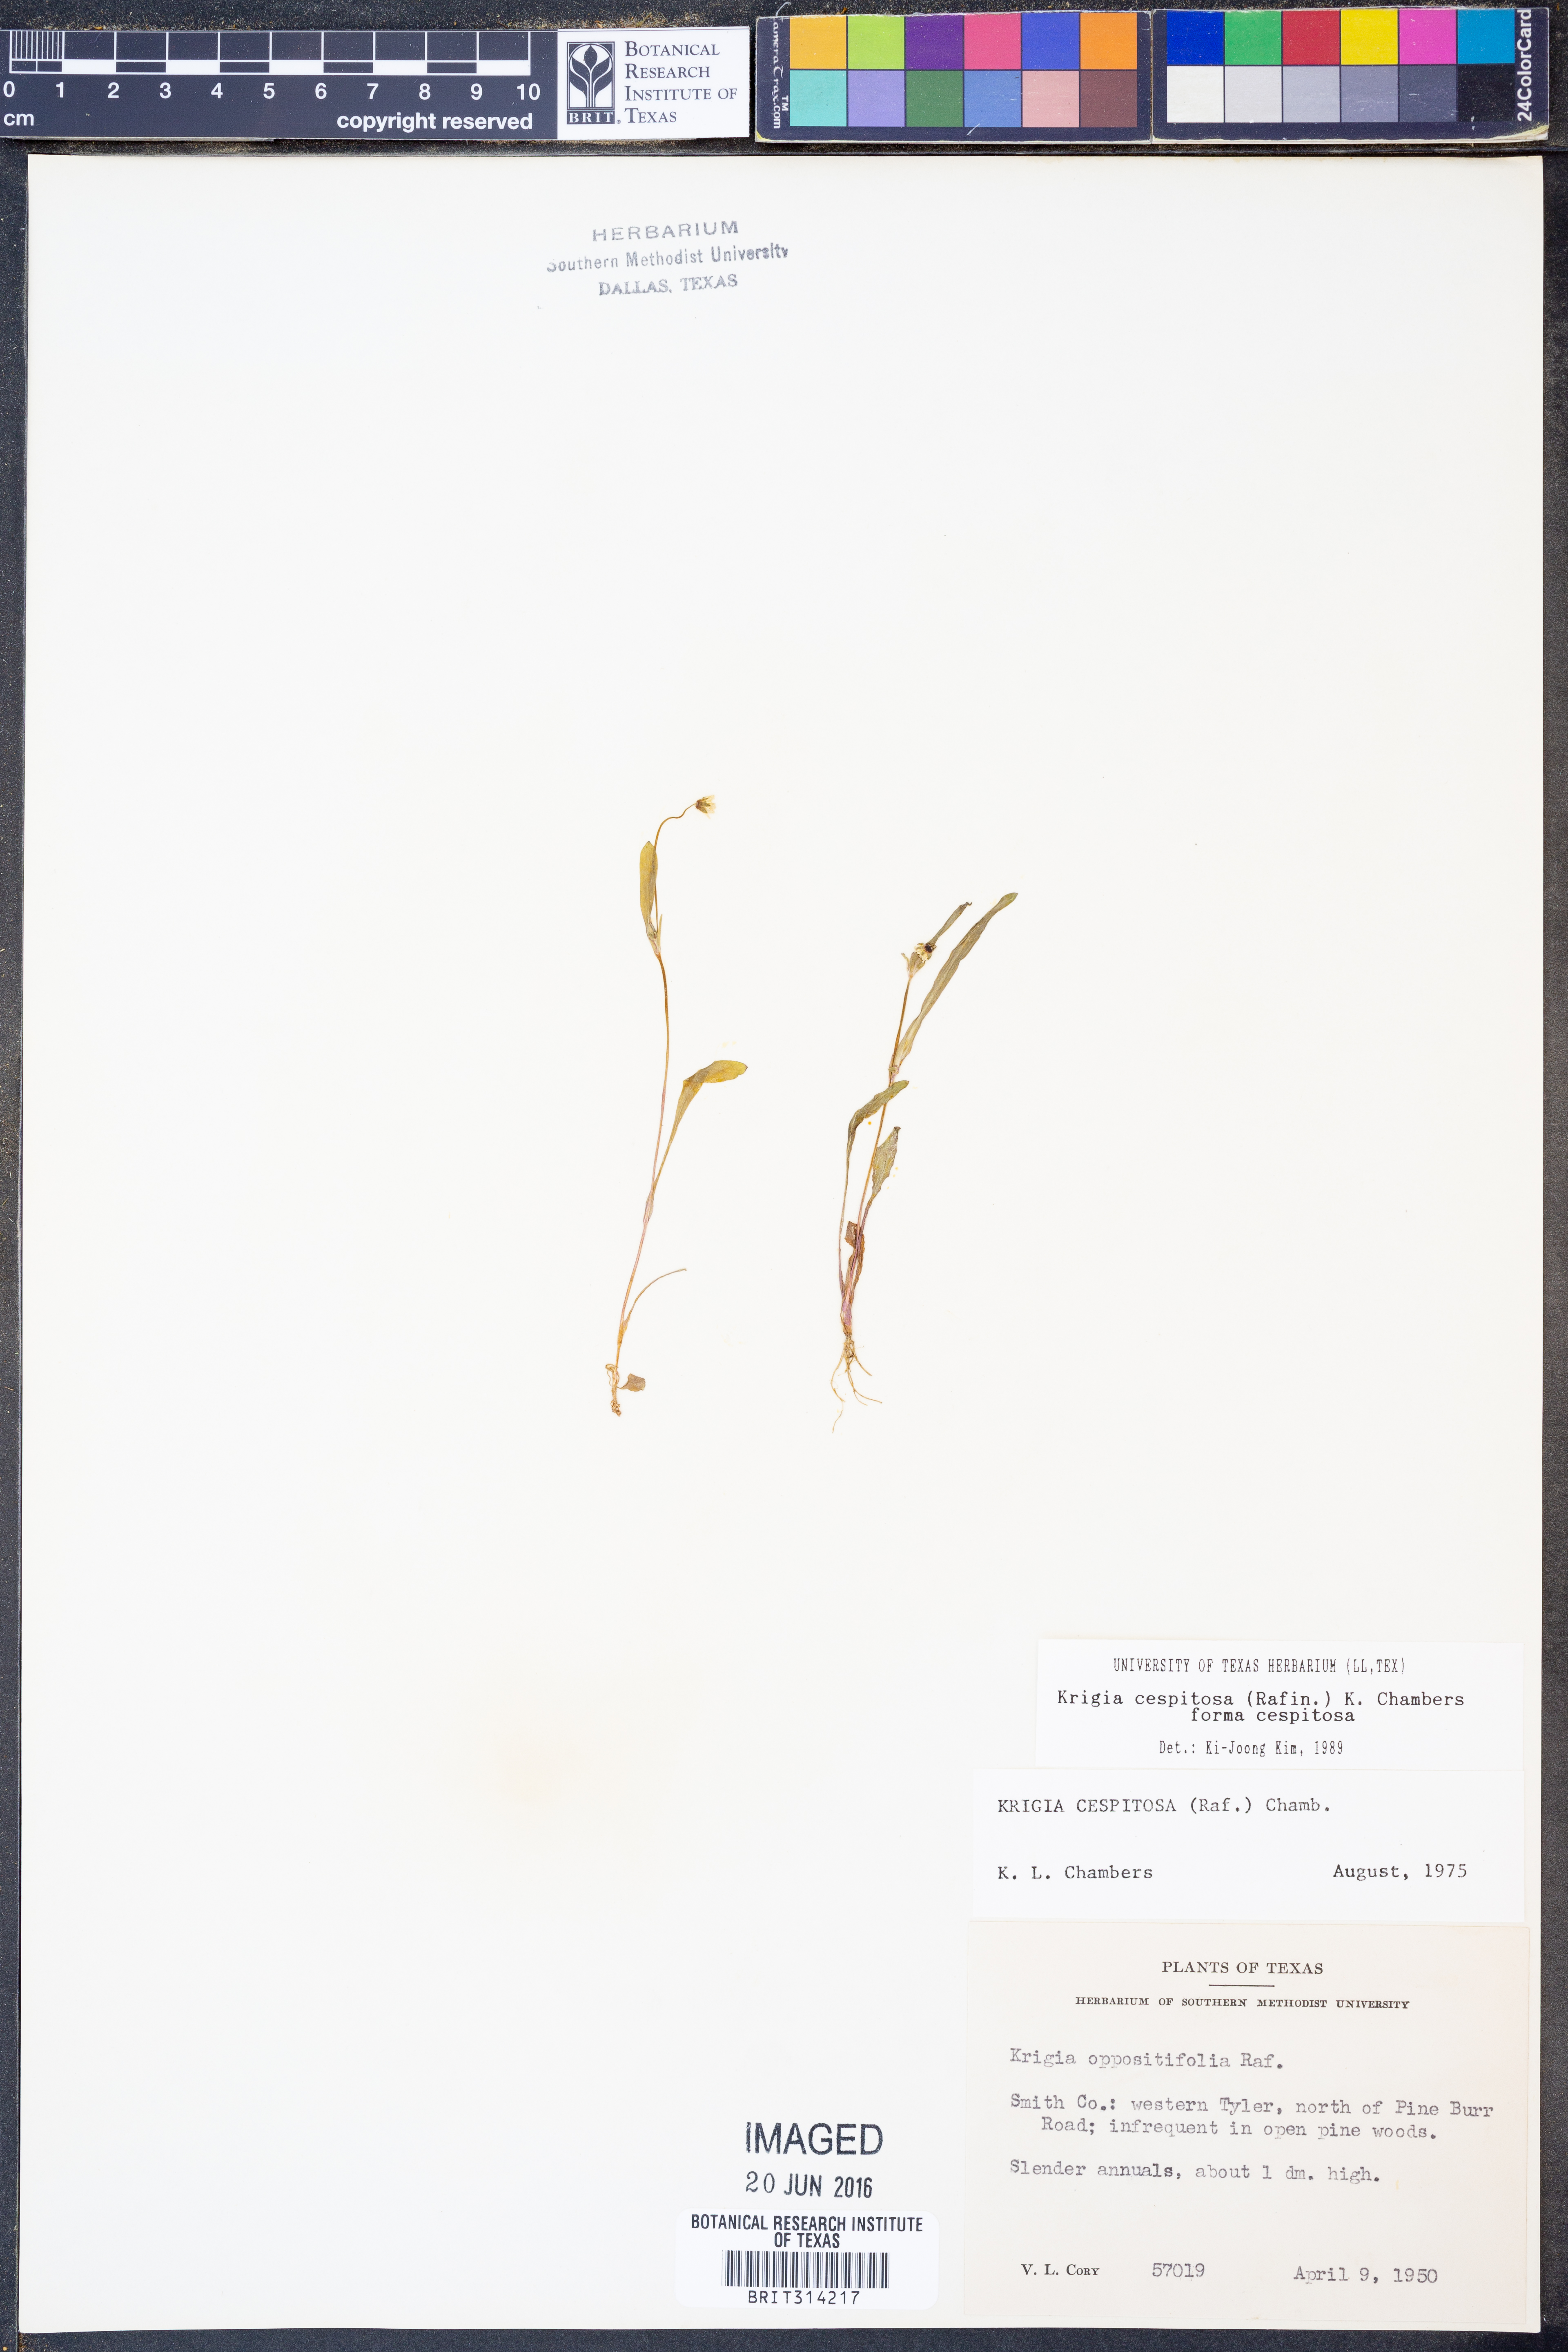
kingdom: Plantae
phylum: Tracheophyta
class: Magnoliopsida
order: Asterales
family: Asteraceae
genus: Krigia
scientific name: Krigia cespitosa
